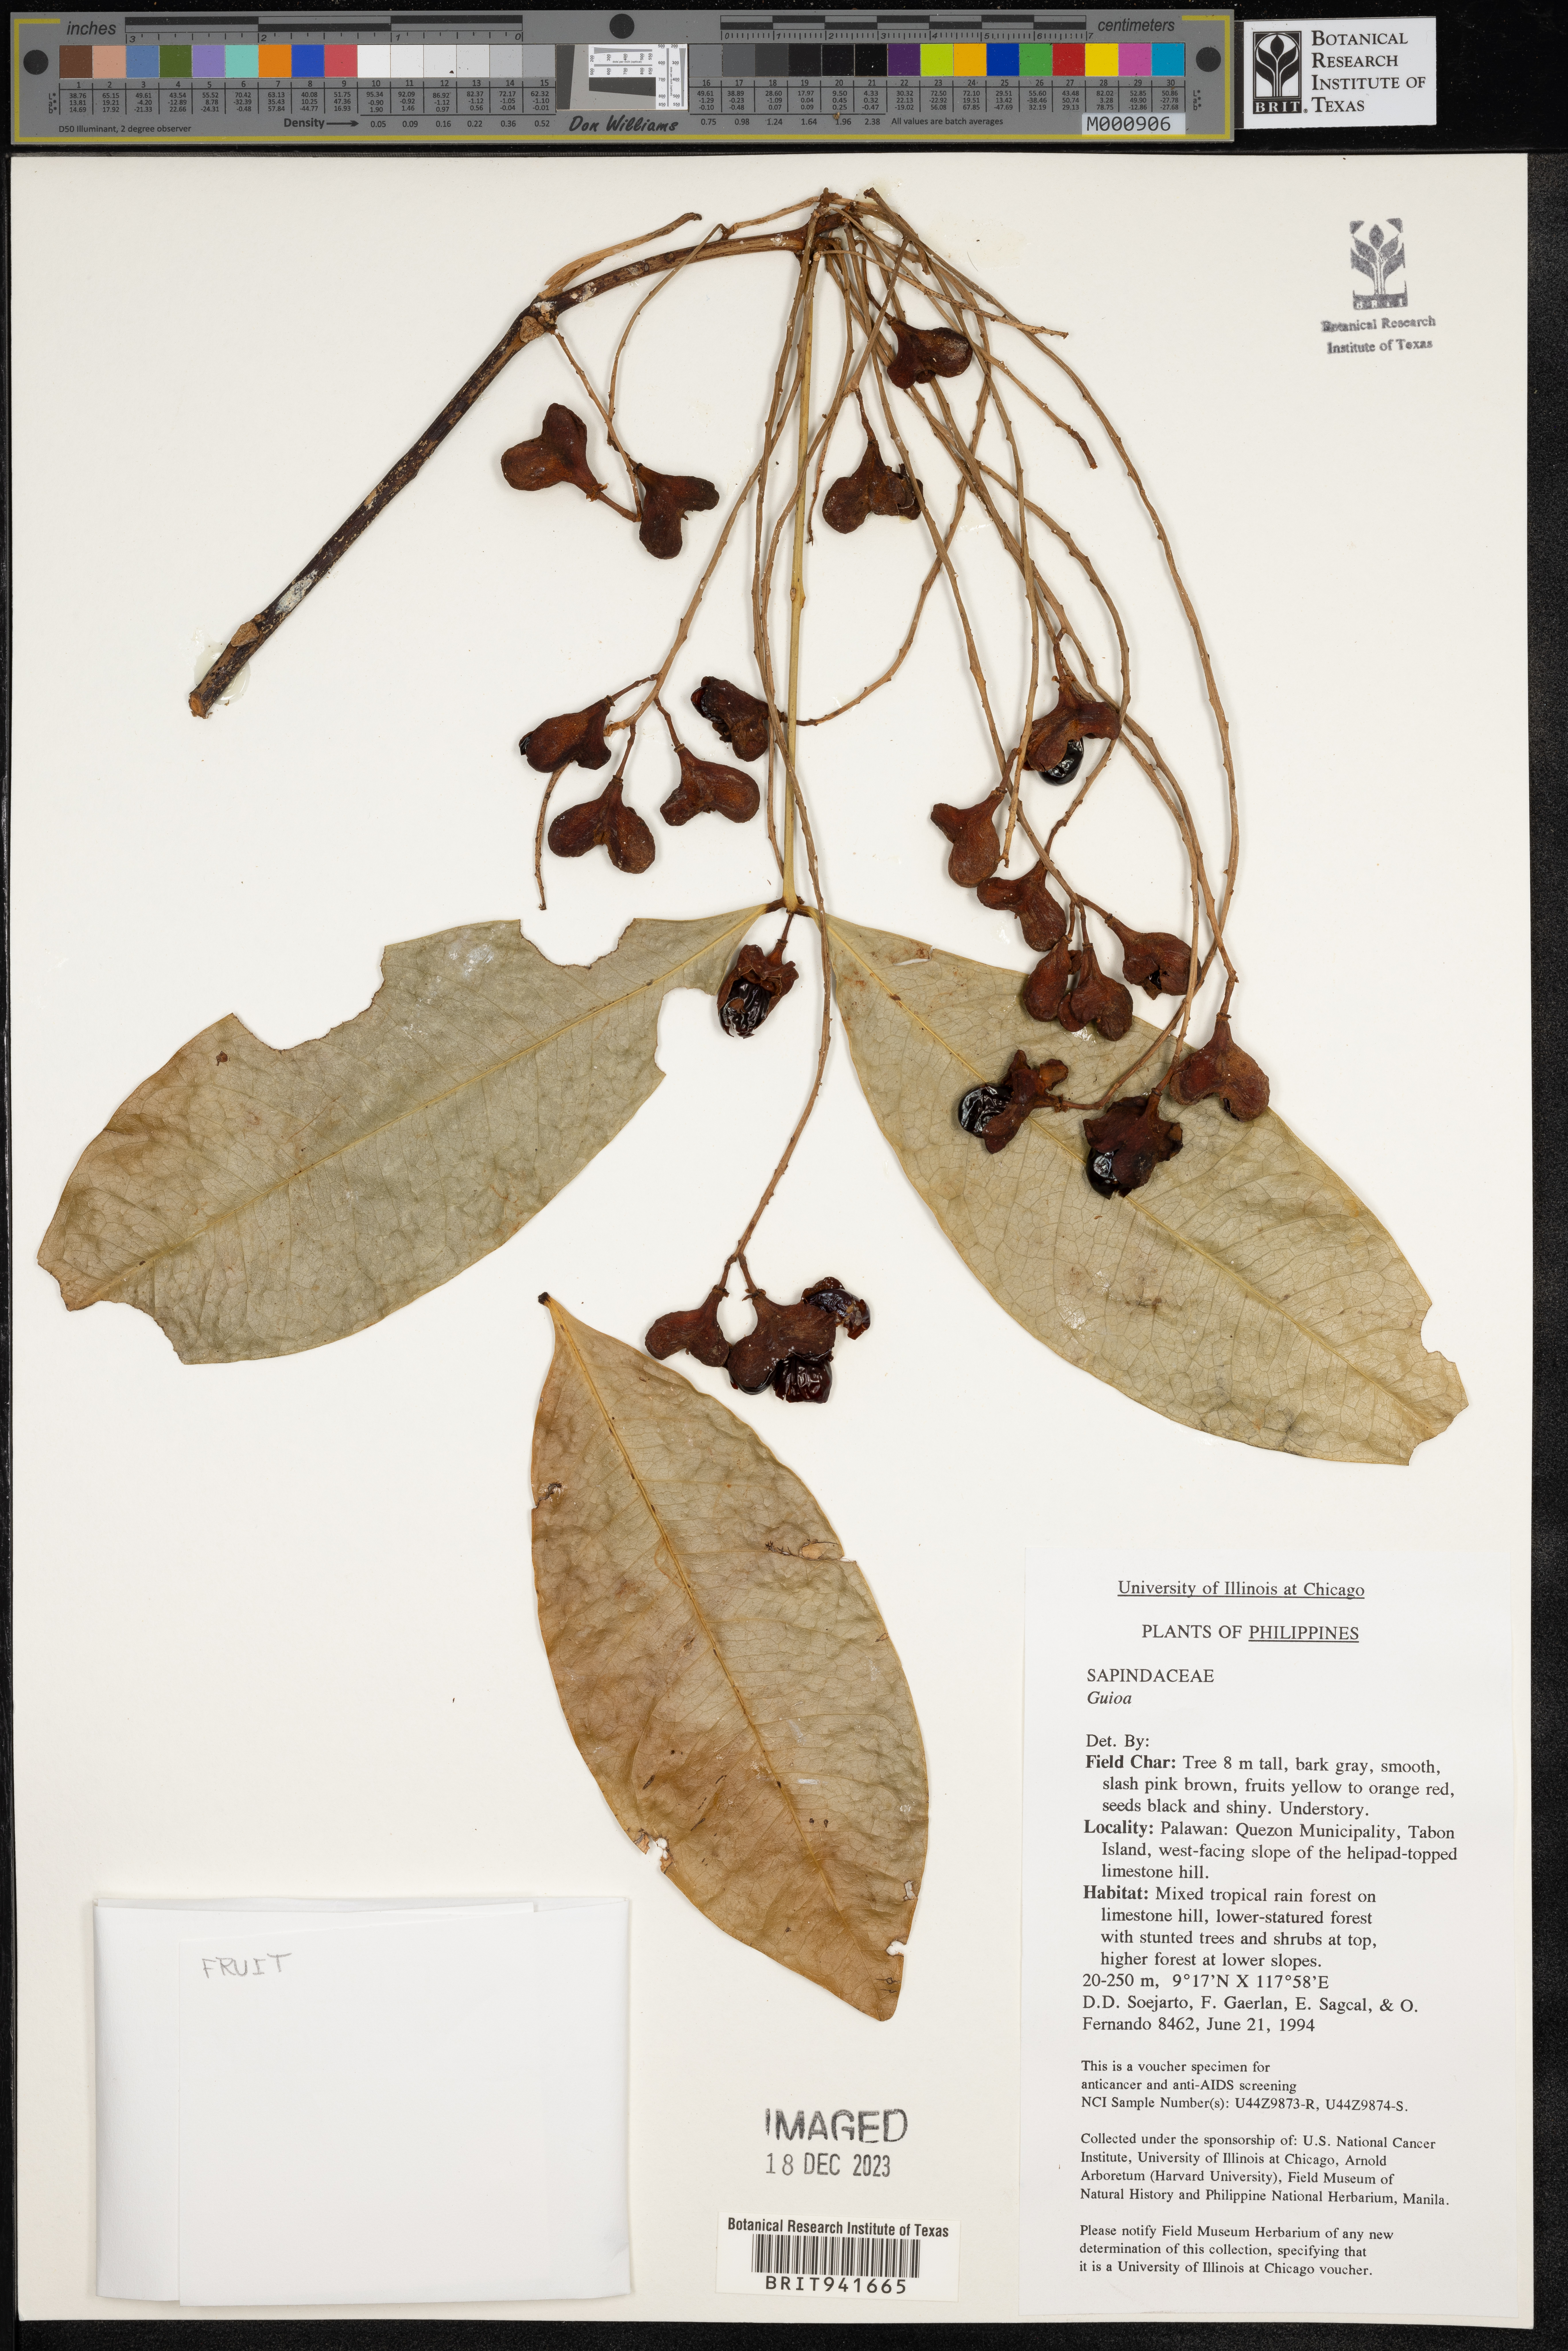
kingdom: Plantae
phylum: Tracheophyta
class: Magnoliopsida
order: Sapindales
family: Sapindaceae
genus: Guioa
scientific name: Guioa
